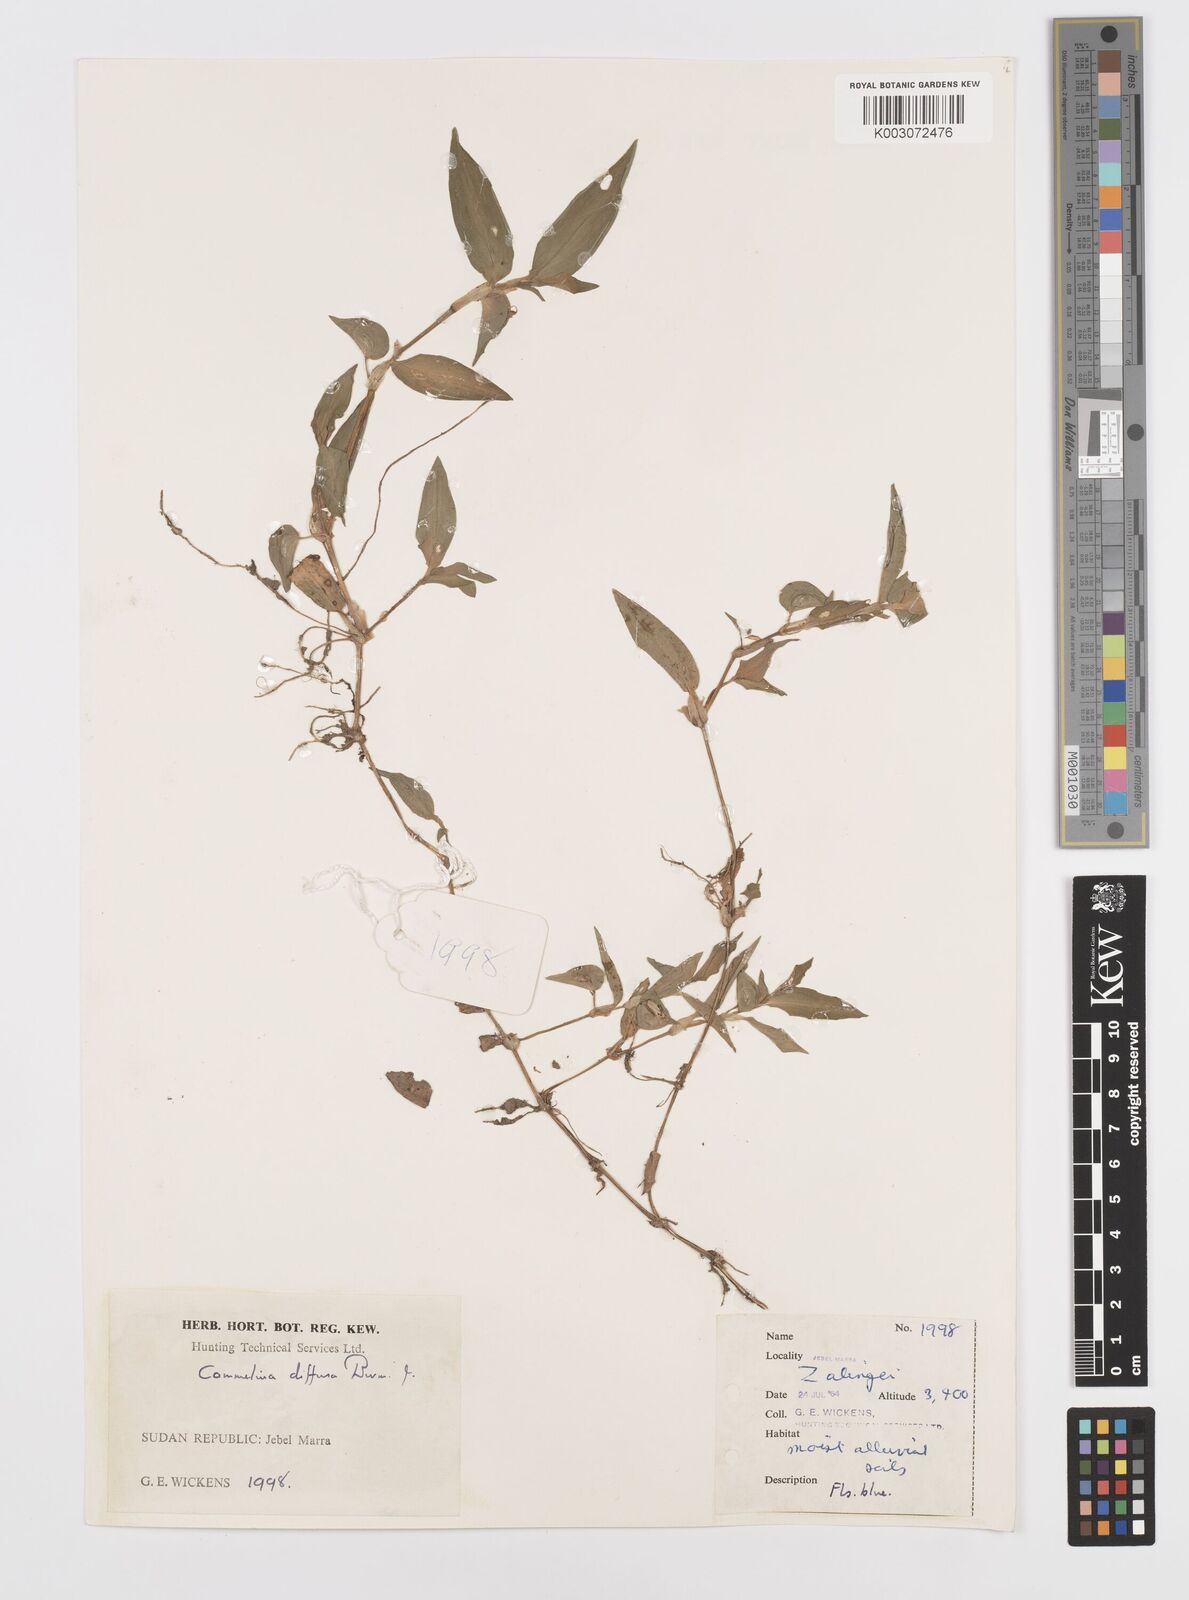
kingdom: Plantae
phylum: Tracheophyta
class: Liliopsida
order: Commelinales
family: Commelinaceae
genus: Commelina
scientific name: Commelina diffusa
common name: Climbing dayflower
